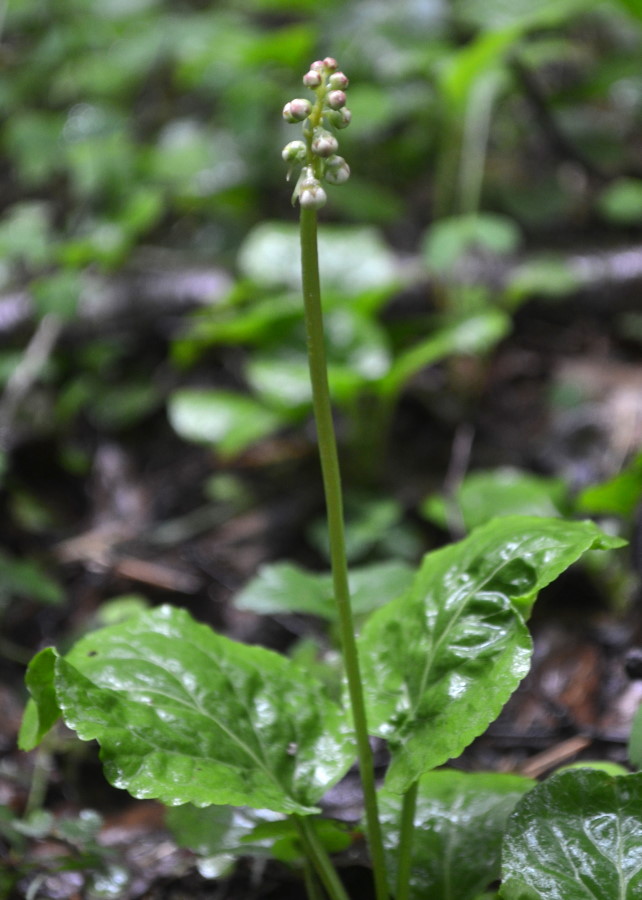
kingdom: Plantae
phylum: Tracheophyta
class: Magnoliopsida
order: Ericales
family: Ericaceae
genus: Pyrola
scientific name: Pyrola rotundifolia
